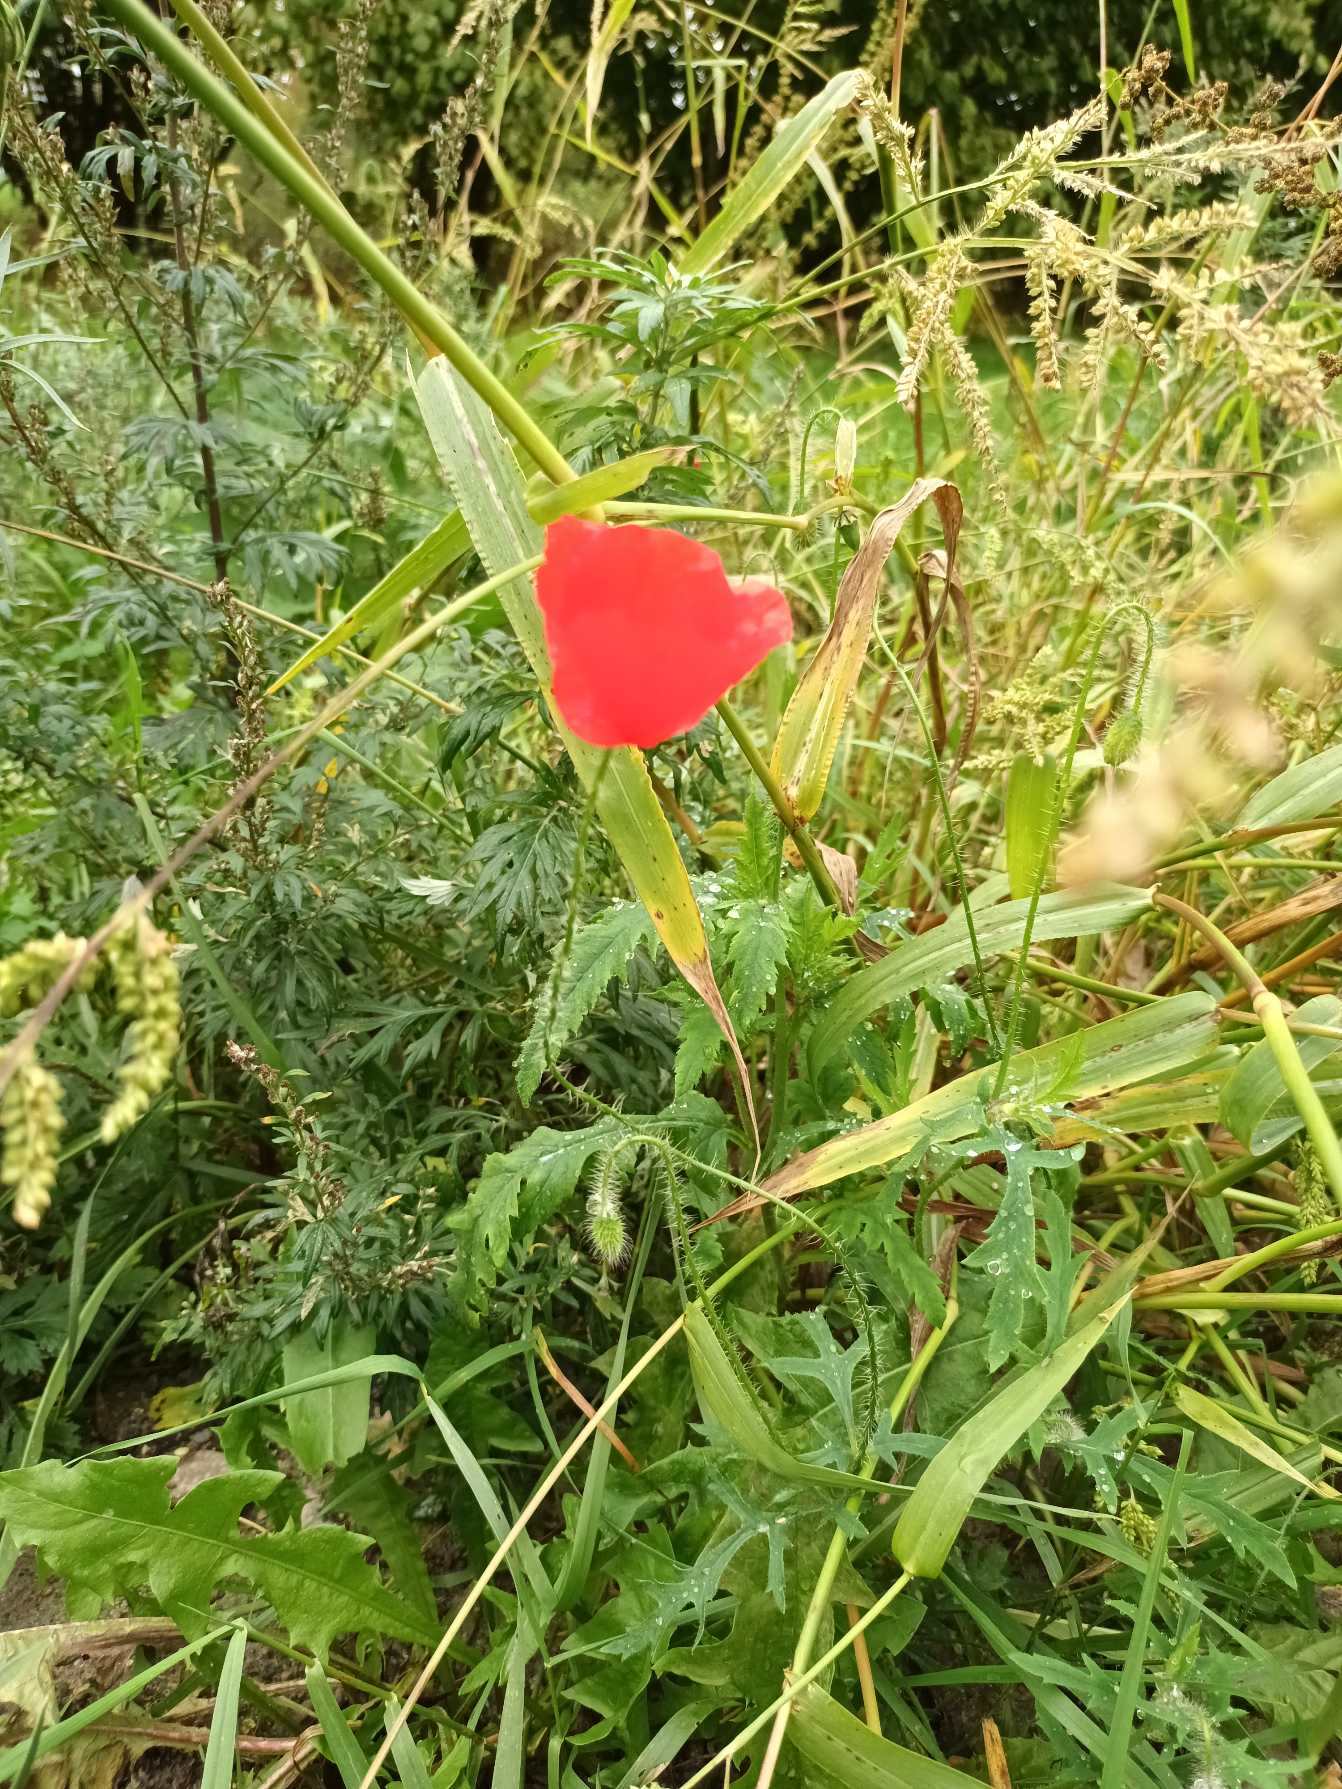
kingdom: Plantae
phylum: Tracheophyta
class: Magnoliopsida
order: Ranunculales
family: Papaveraceae
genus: Papaver
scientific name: Papaver rhoeas
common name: Korn-valmue
